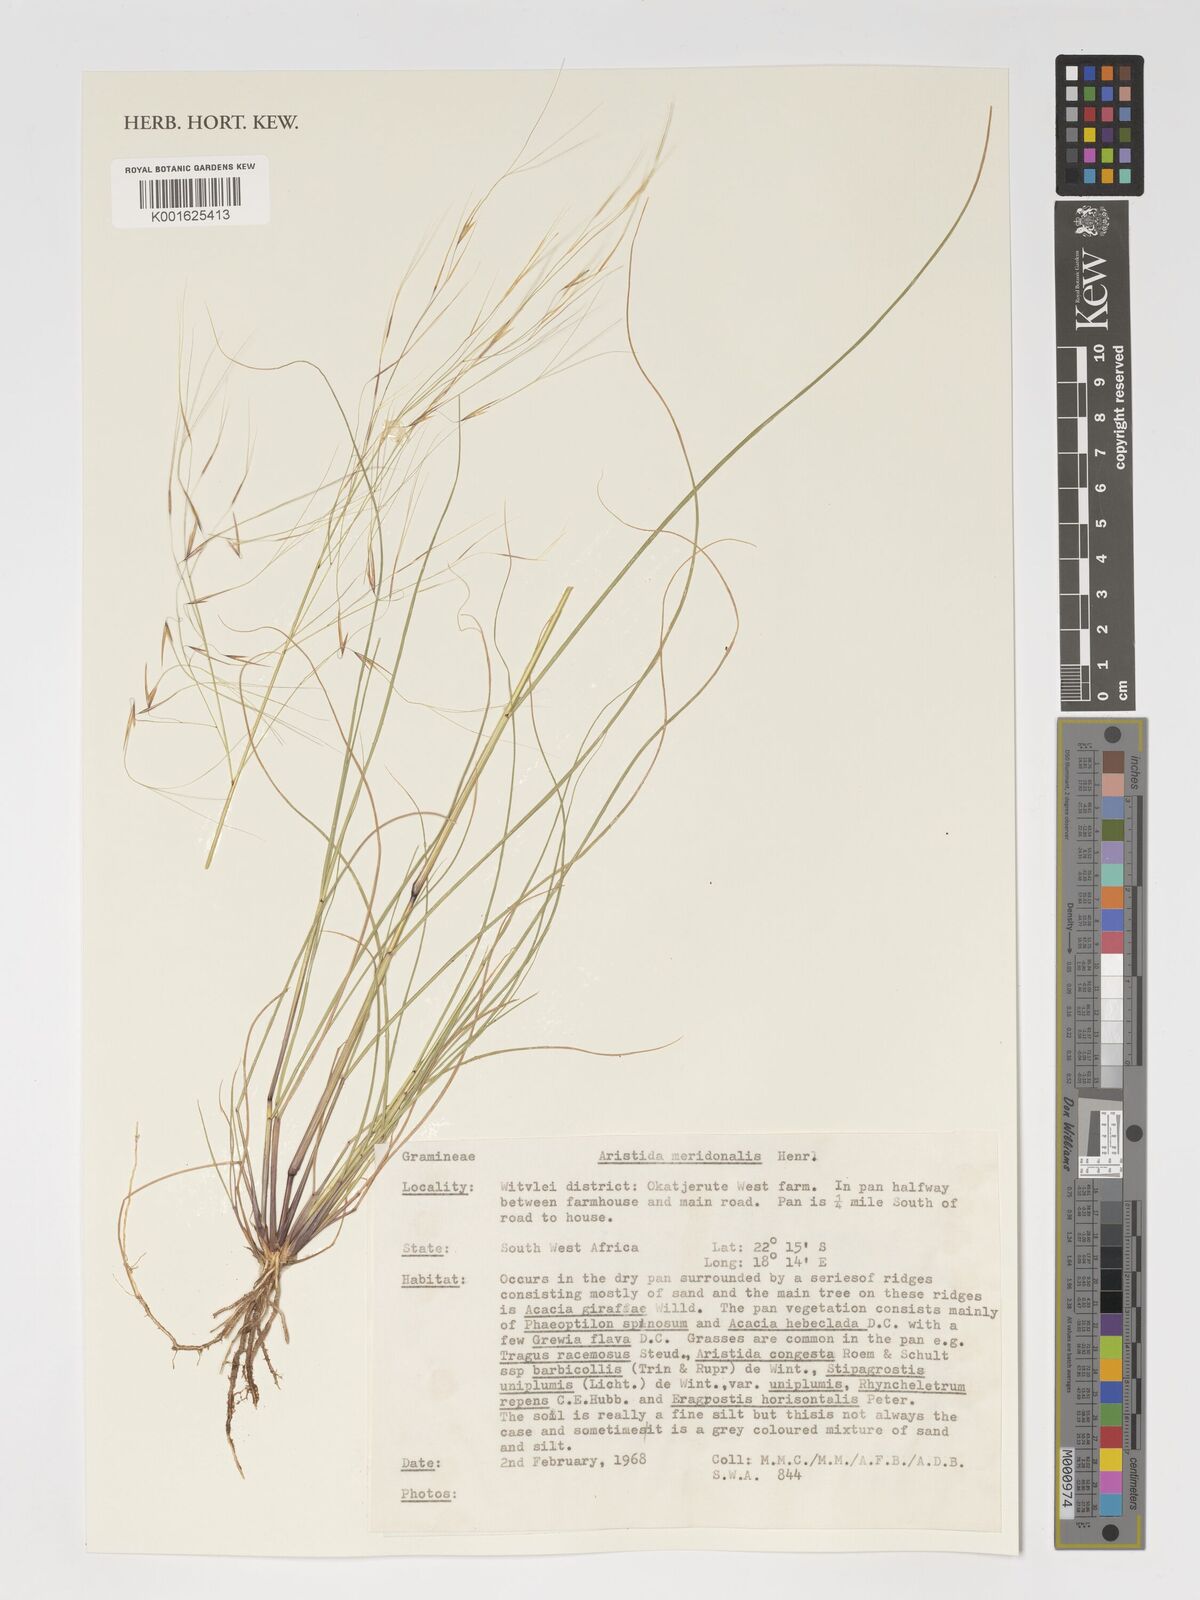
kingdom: Plantae
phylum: Tracheophyta
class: Liliopsida
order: Poales
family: Poaceae
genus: Aristida
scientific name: Aristida meridionalis
